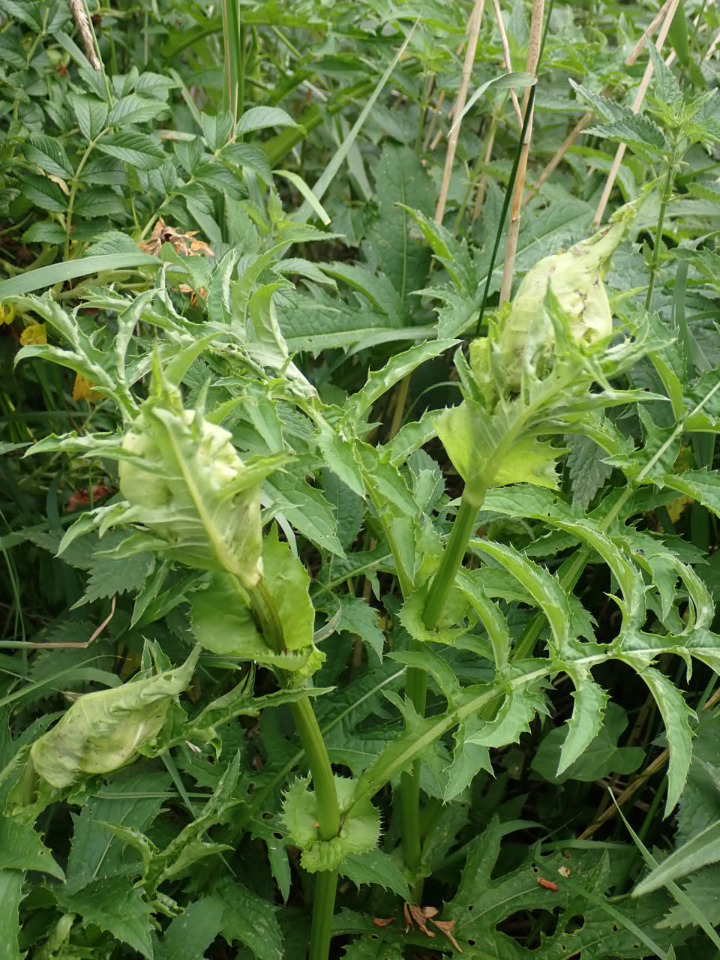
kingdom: Plantae
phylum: Tracheophyta
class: Magnoliopsida
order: Asterales
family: Asteraceae
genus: Cirsium
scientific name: Cirsium oleraceum
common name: Kål-tidsel
